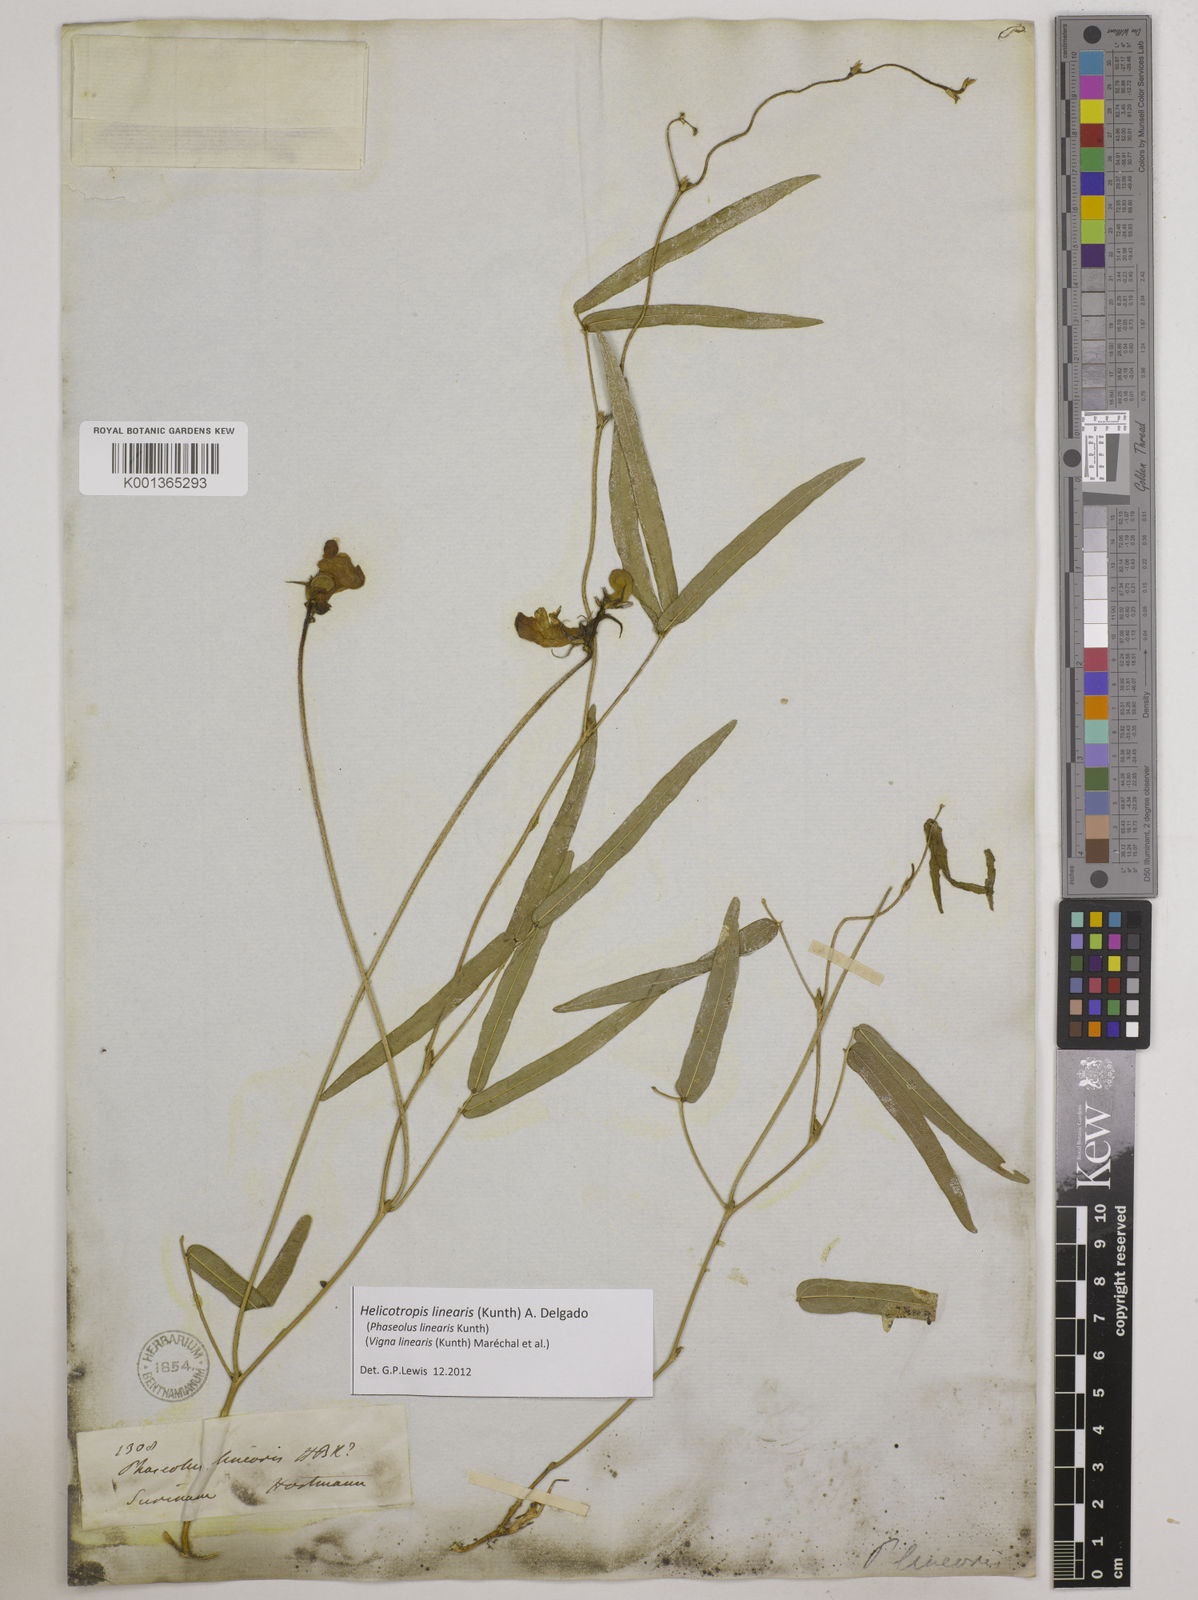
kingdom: Plantae
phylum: Tracheophyta
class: Magnoliopsida
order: Fabales
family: Fabaceae
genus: Helicotropis
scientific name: Helicotropis linearis
